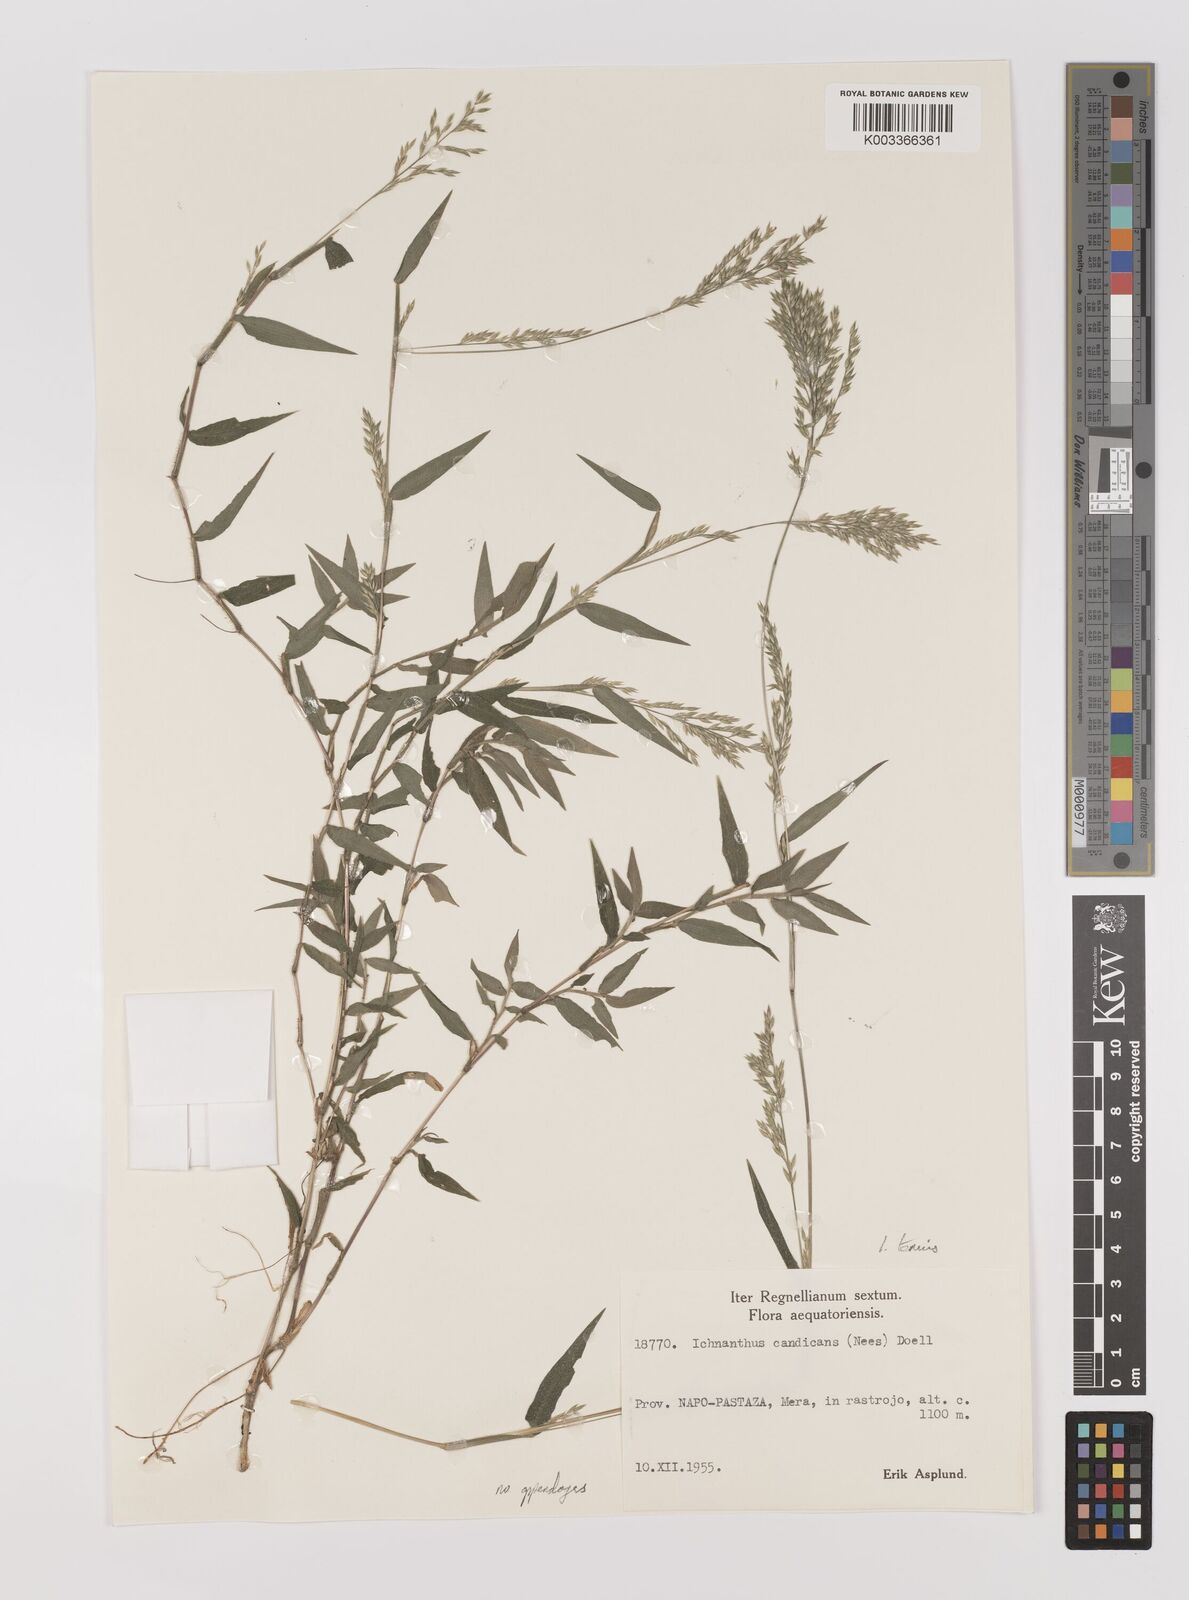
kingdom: Plantae
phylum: Tracheophyta
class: Liliopsida
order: Poales
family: Poaceae
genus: Ichnanthus
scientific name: Ichnanthus tenuis
